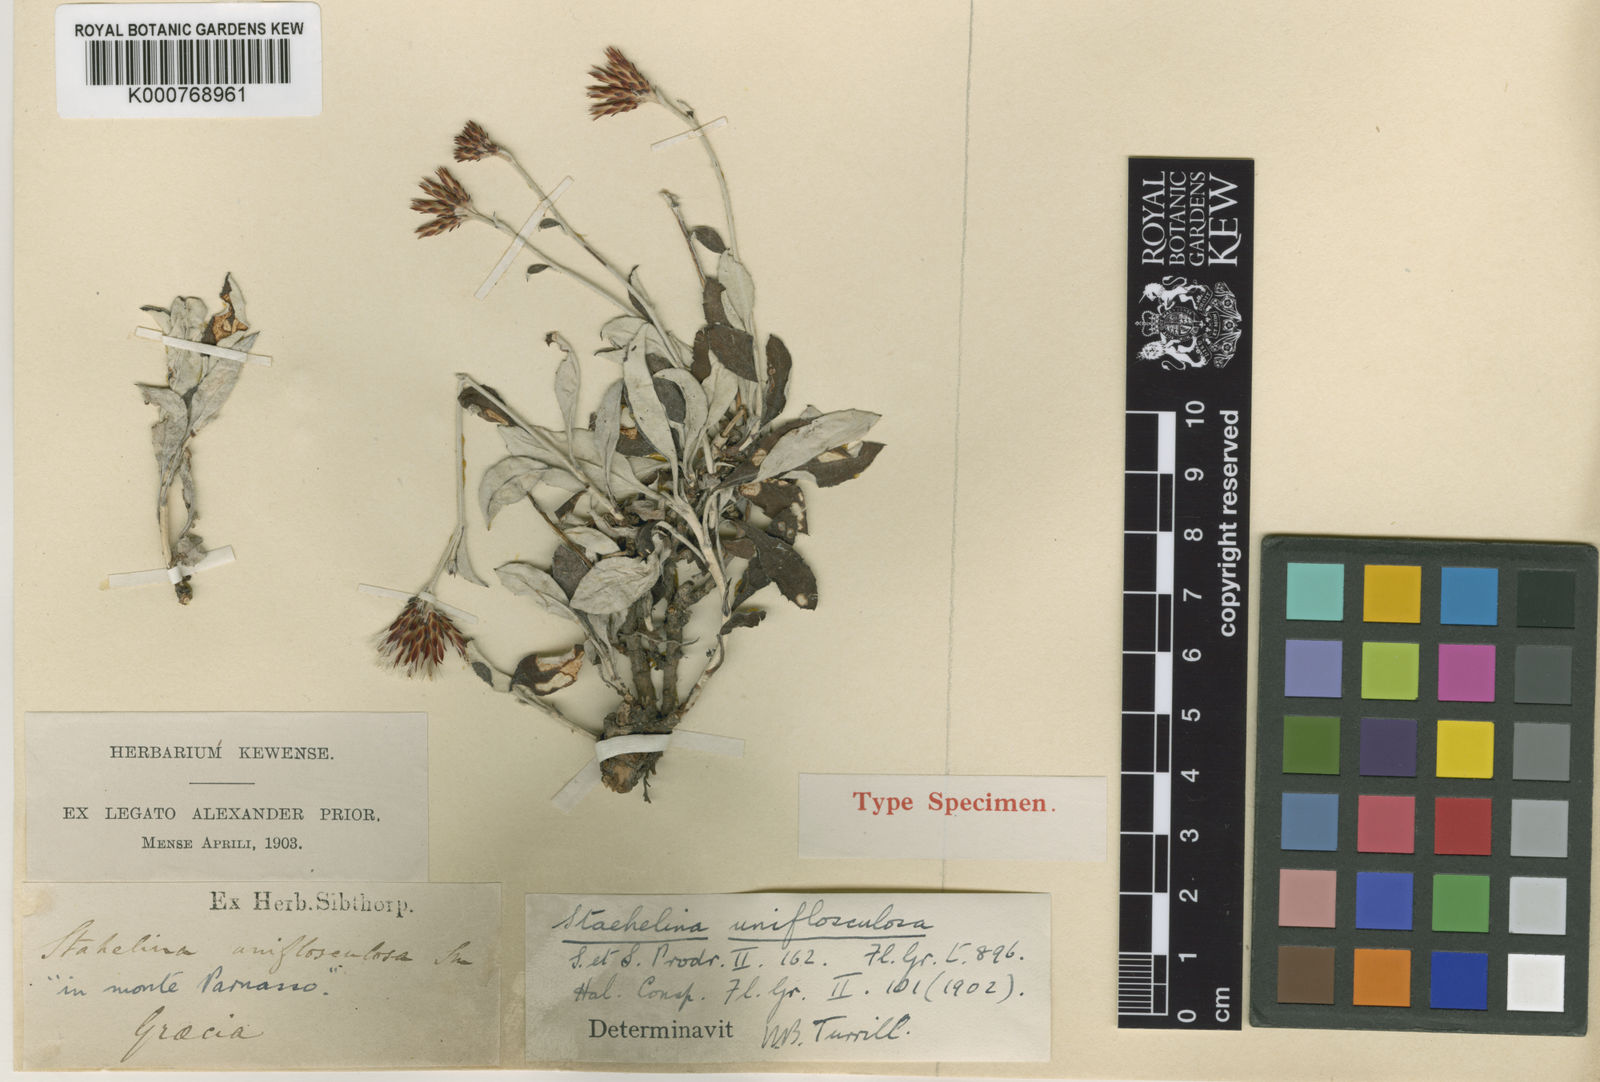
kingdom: Plantae
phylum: Tracheophyta
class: Magnoliopsida
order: Asterales
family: Asteraceae
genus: Staehelina
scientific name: Staehelina uniflosculosa
